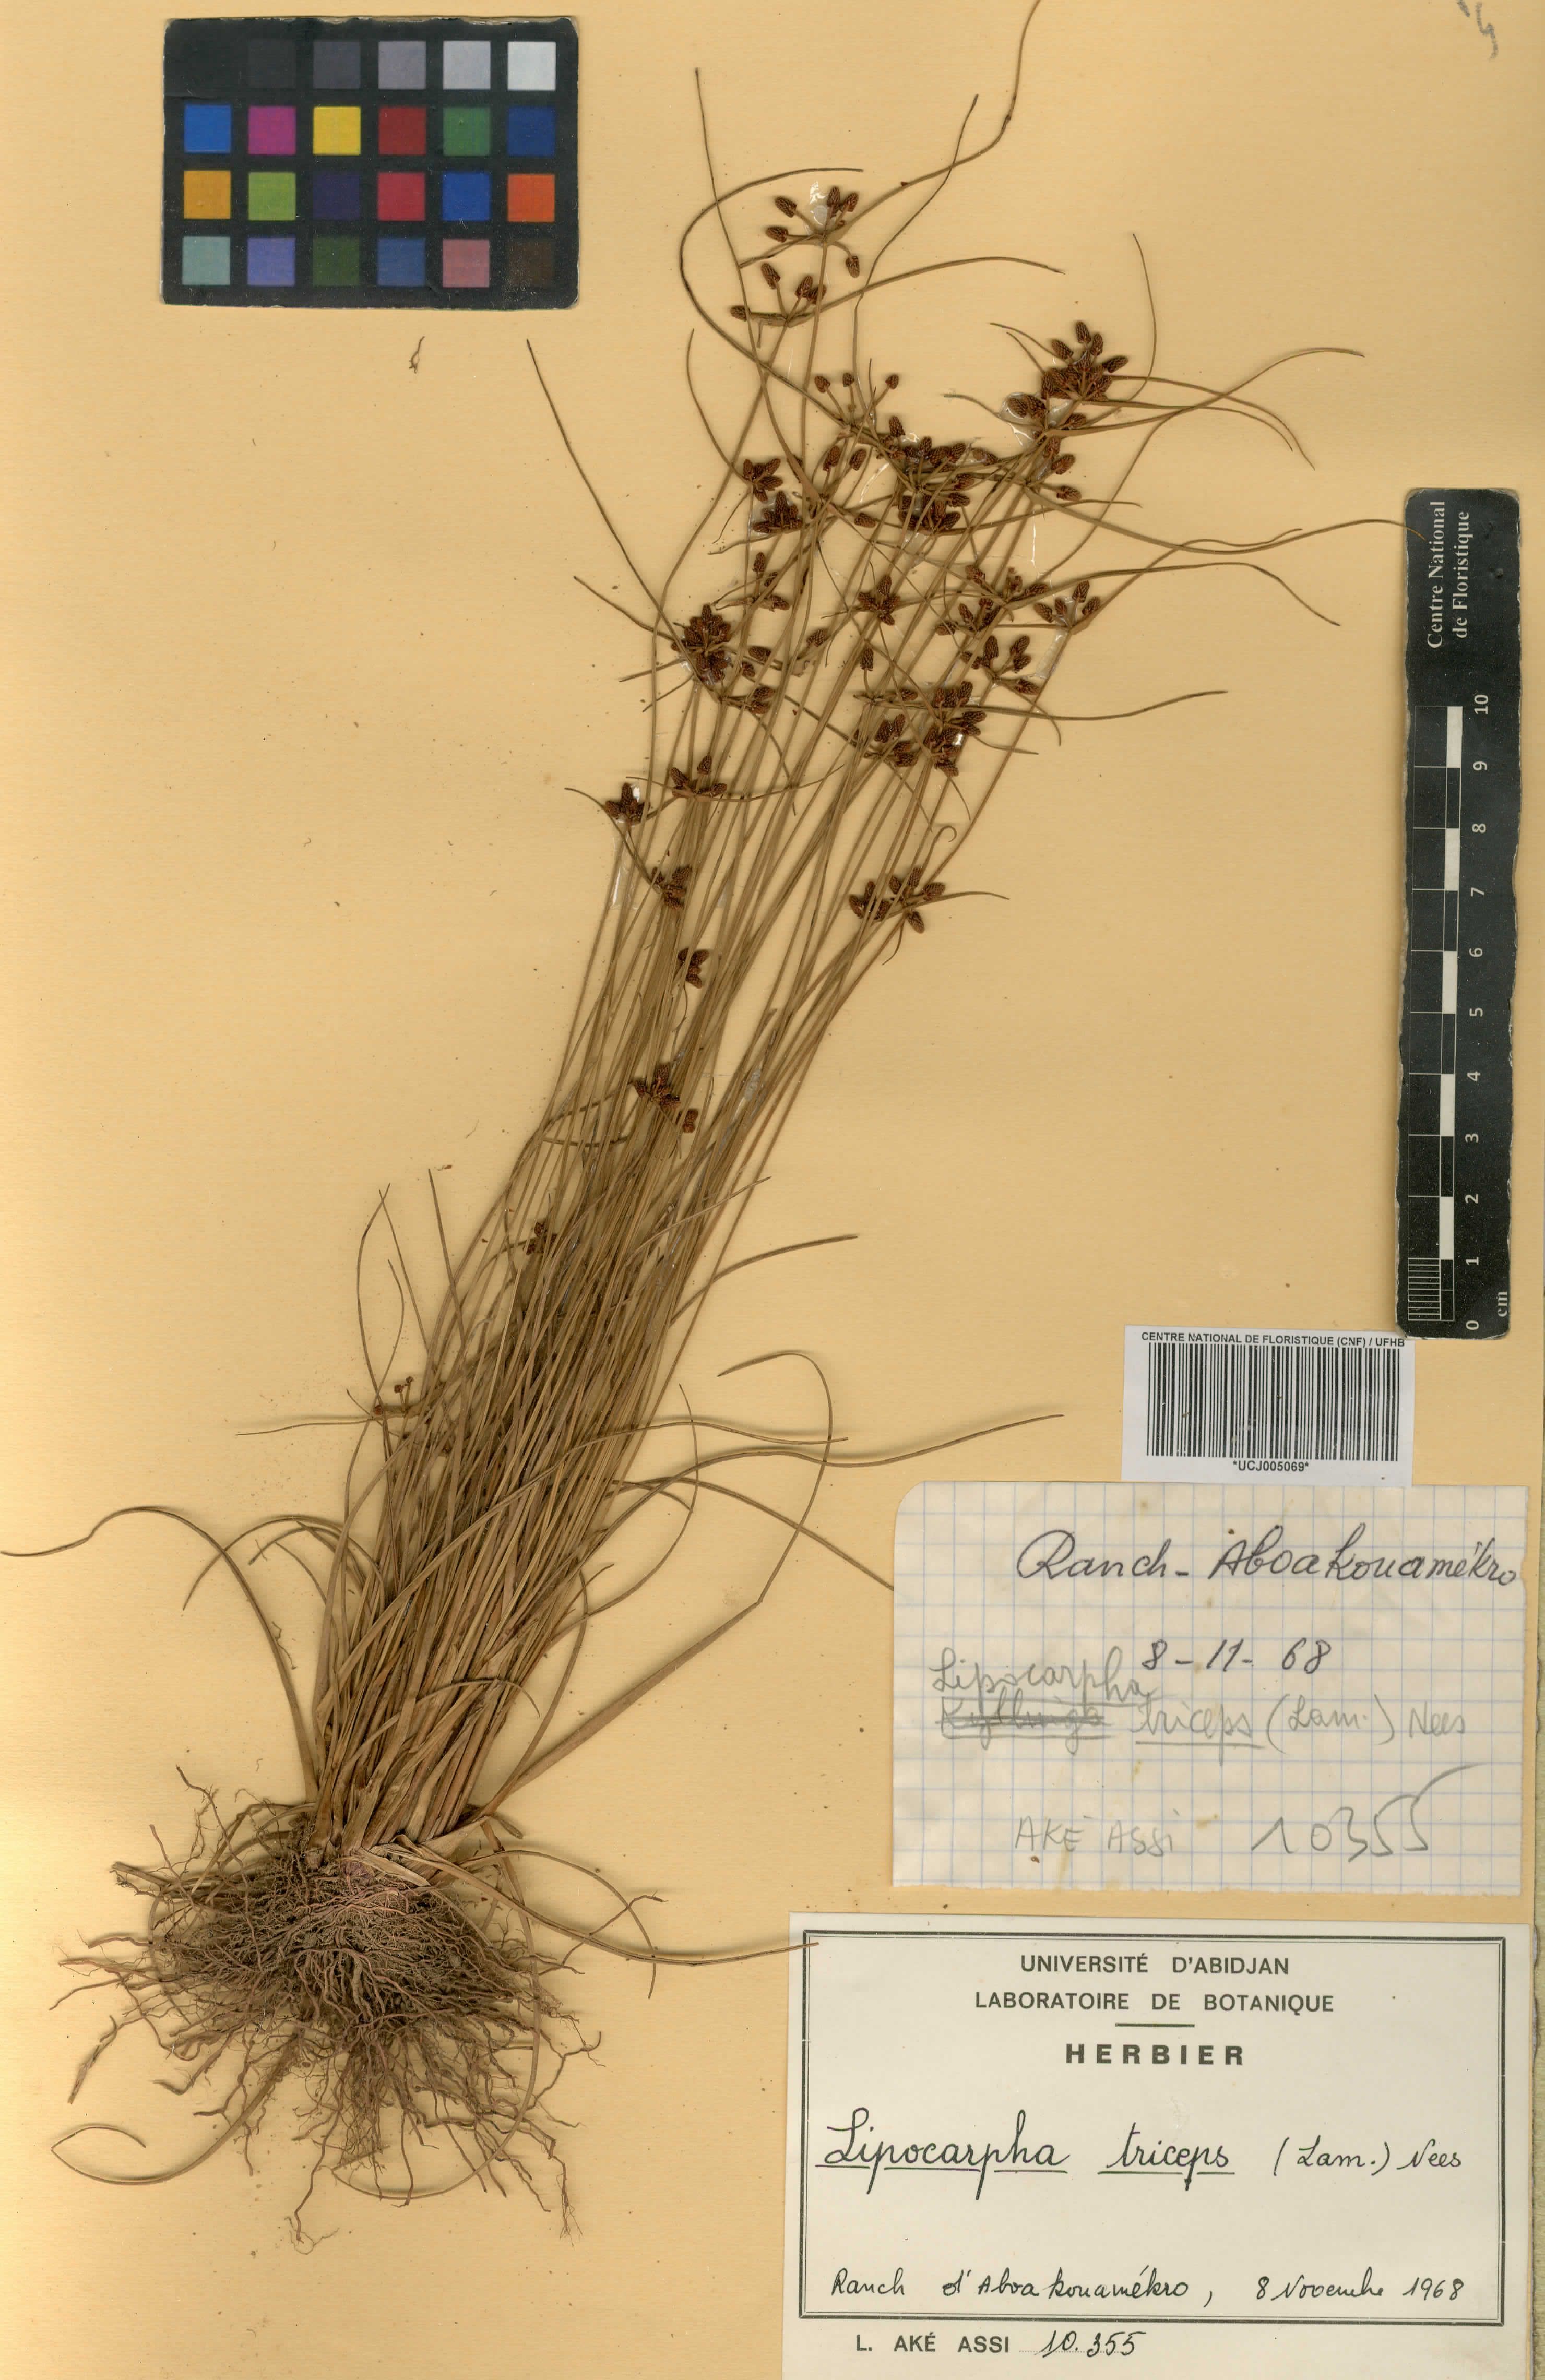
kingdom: Plantae
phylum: Tracheophyta
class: Liliopsida
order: Poales
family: Cyperaceae
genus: Cyperus
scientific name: Cyperus ceylanicus
